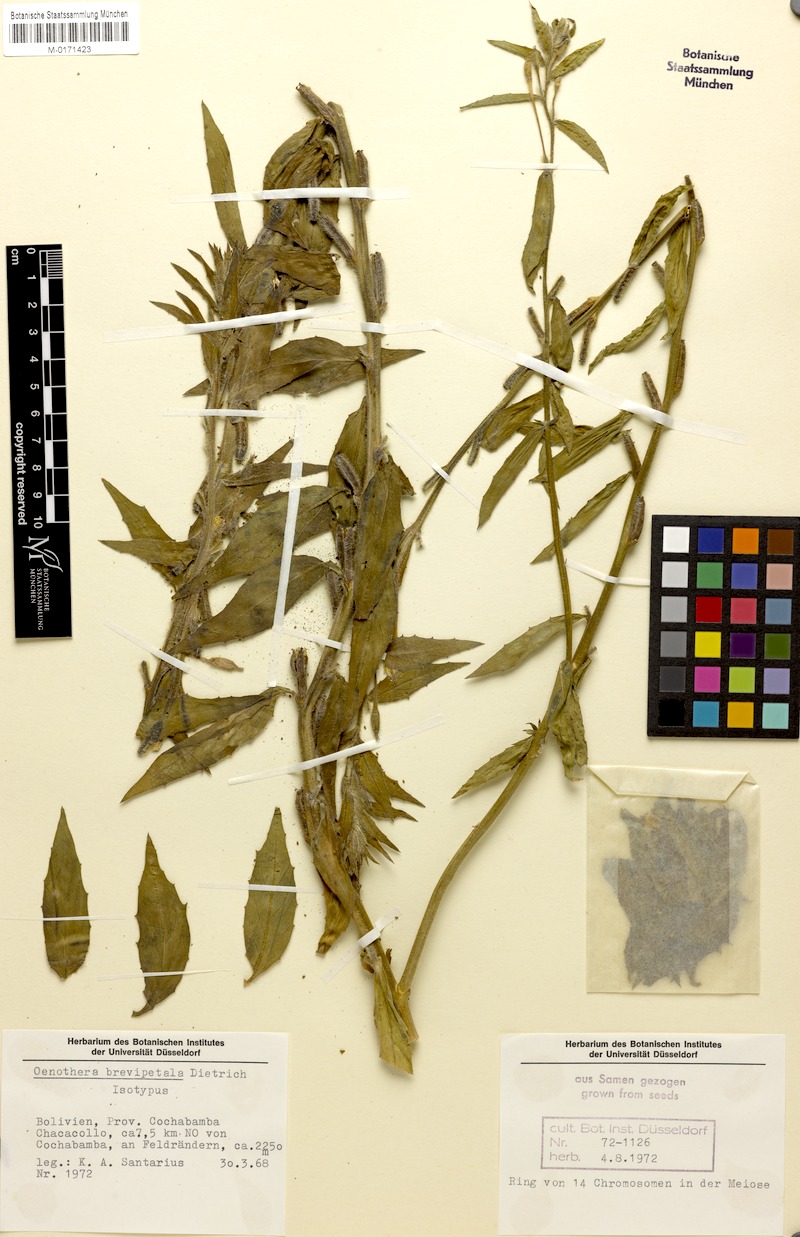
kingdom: Plantae
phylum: Tracheophyta
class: Magnoliopsida
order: Myrtales
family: Onagraceae
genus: Oenothera
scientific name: Oenothera brevipetala
